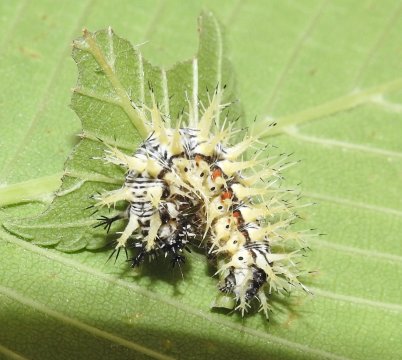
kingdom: Animalia
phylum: Arthropoda
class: Insecta
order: Lepidoptera
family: Nymphalidae
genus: Polygonia
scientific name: Polygonia comma
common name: Eastern Comma
